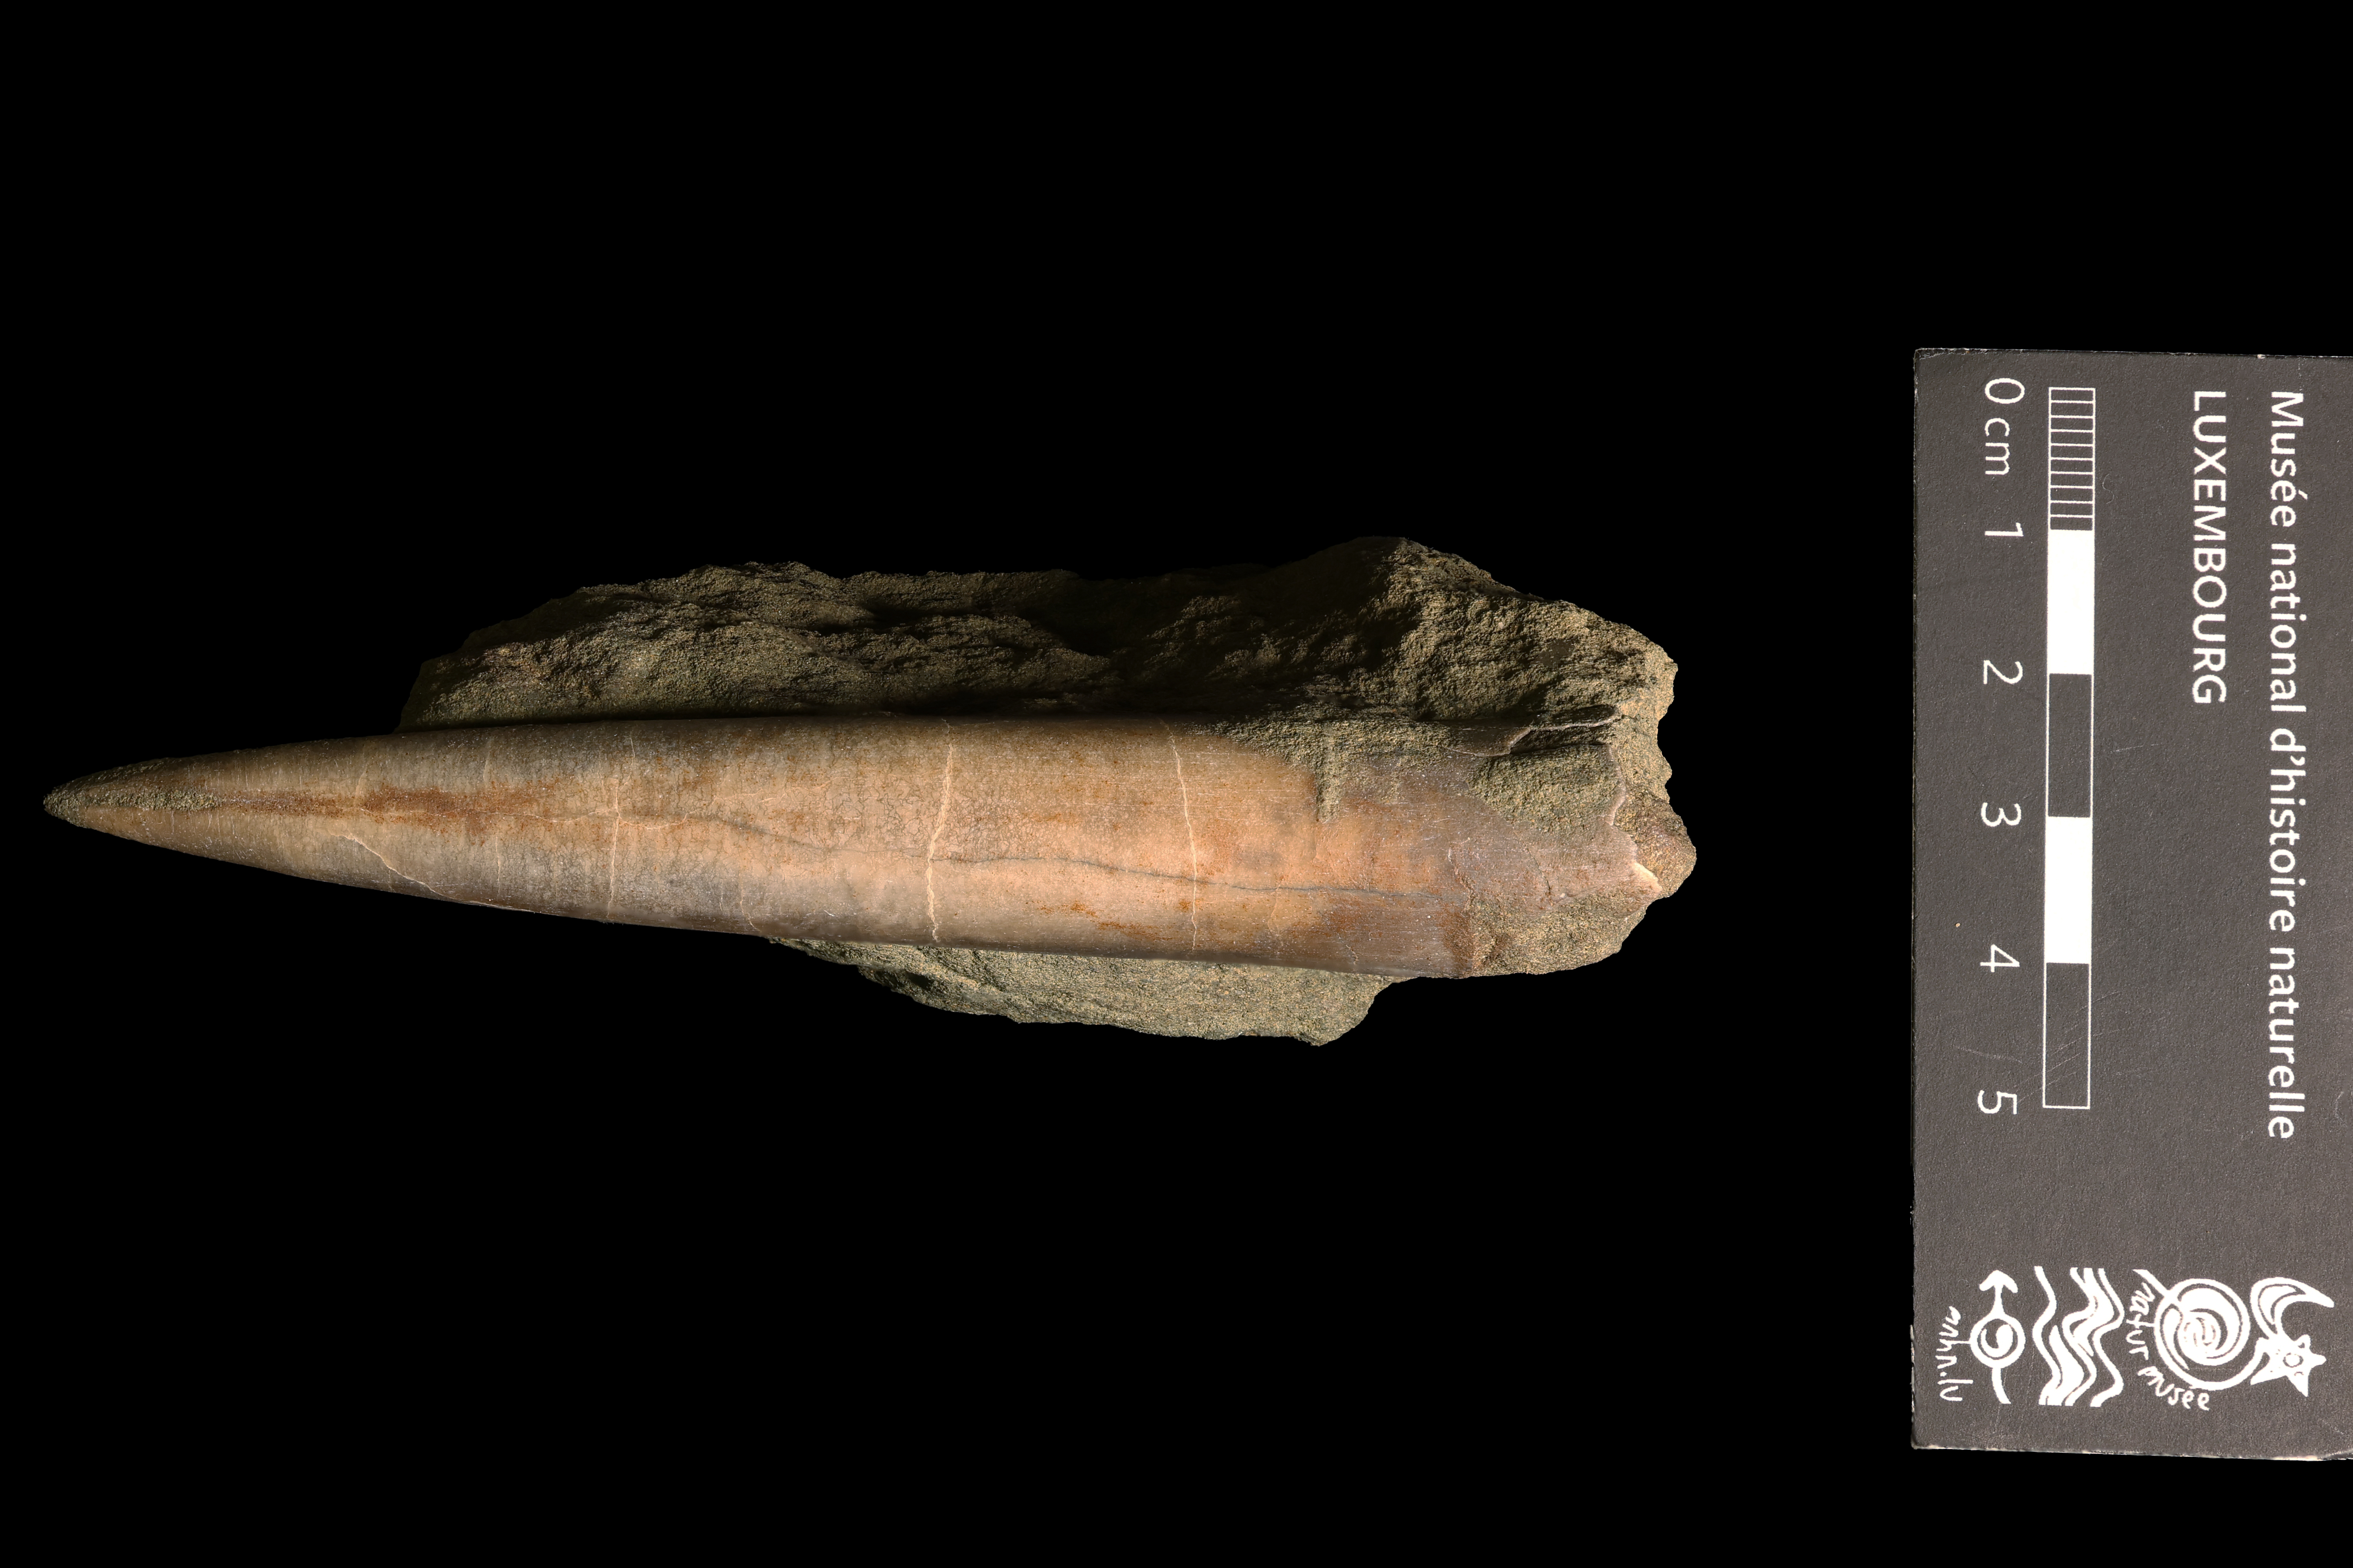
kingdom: Animalia
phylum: Mollusca
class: Cephalopoda
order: Belemnitida
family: Megateuthididae
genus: Acrocoelites
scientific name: Acrocoelites tripartitus
